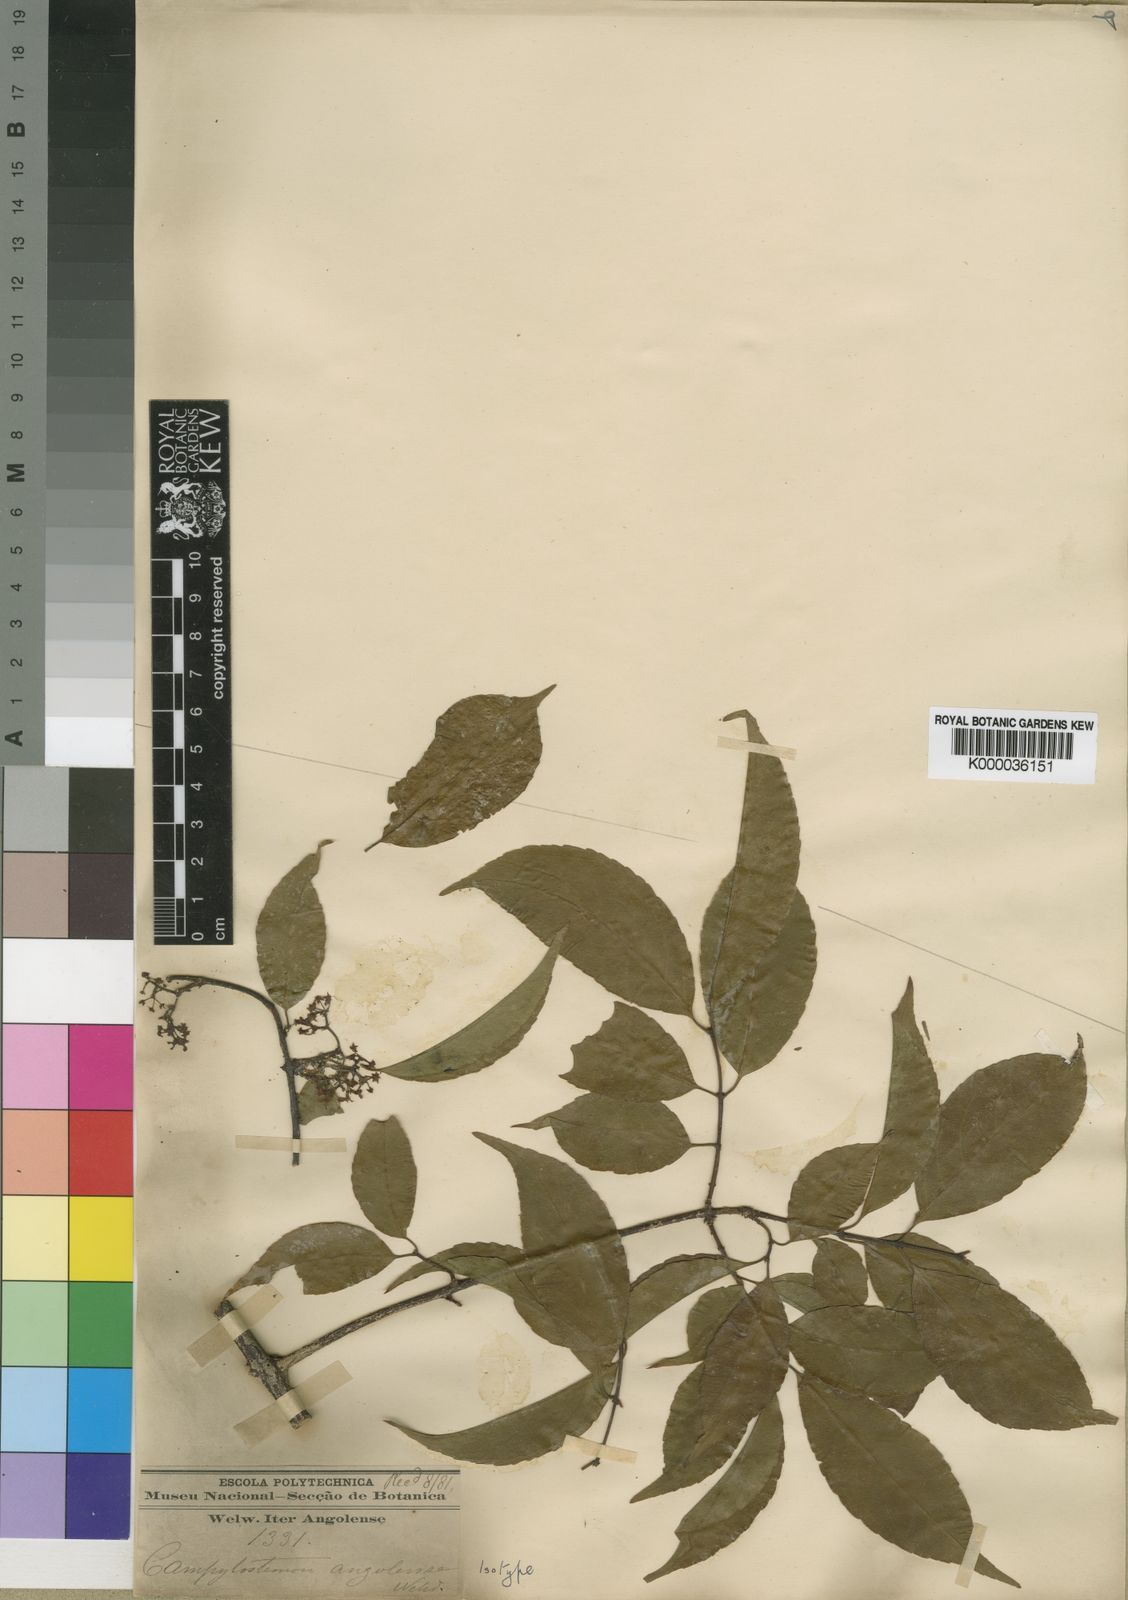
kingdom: Plantae
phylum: Tracheophyta
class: Magnoliopsida
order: Celastrales
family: Celastraceae
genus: Campylostemon
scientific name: Campylostemon
